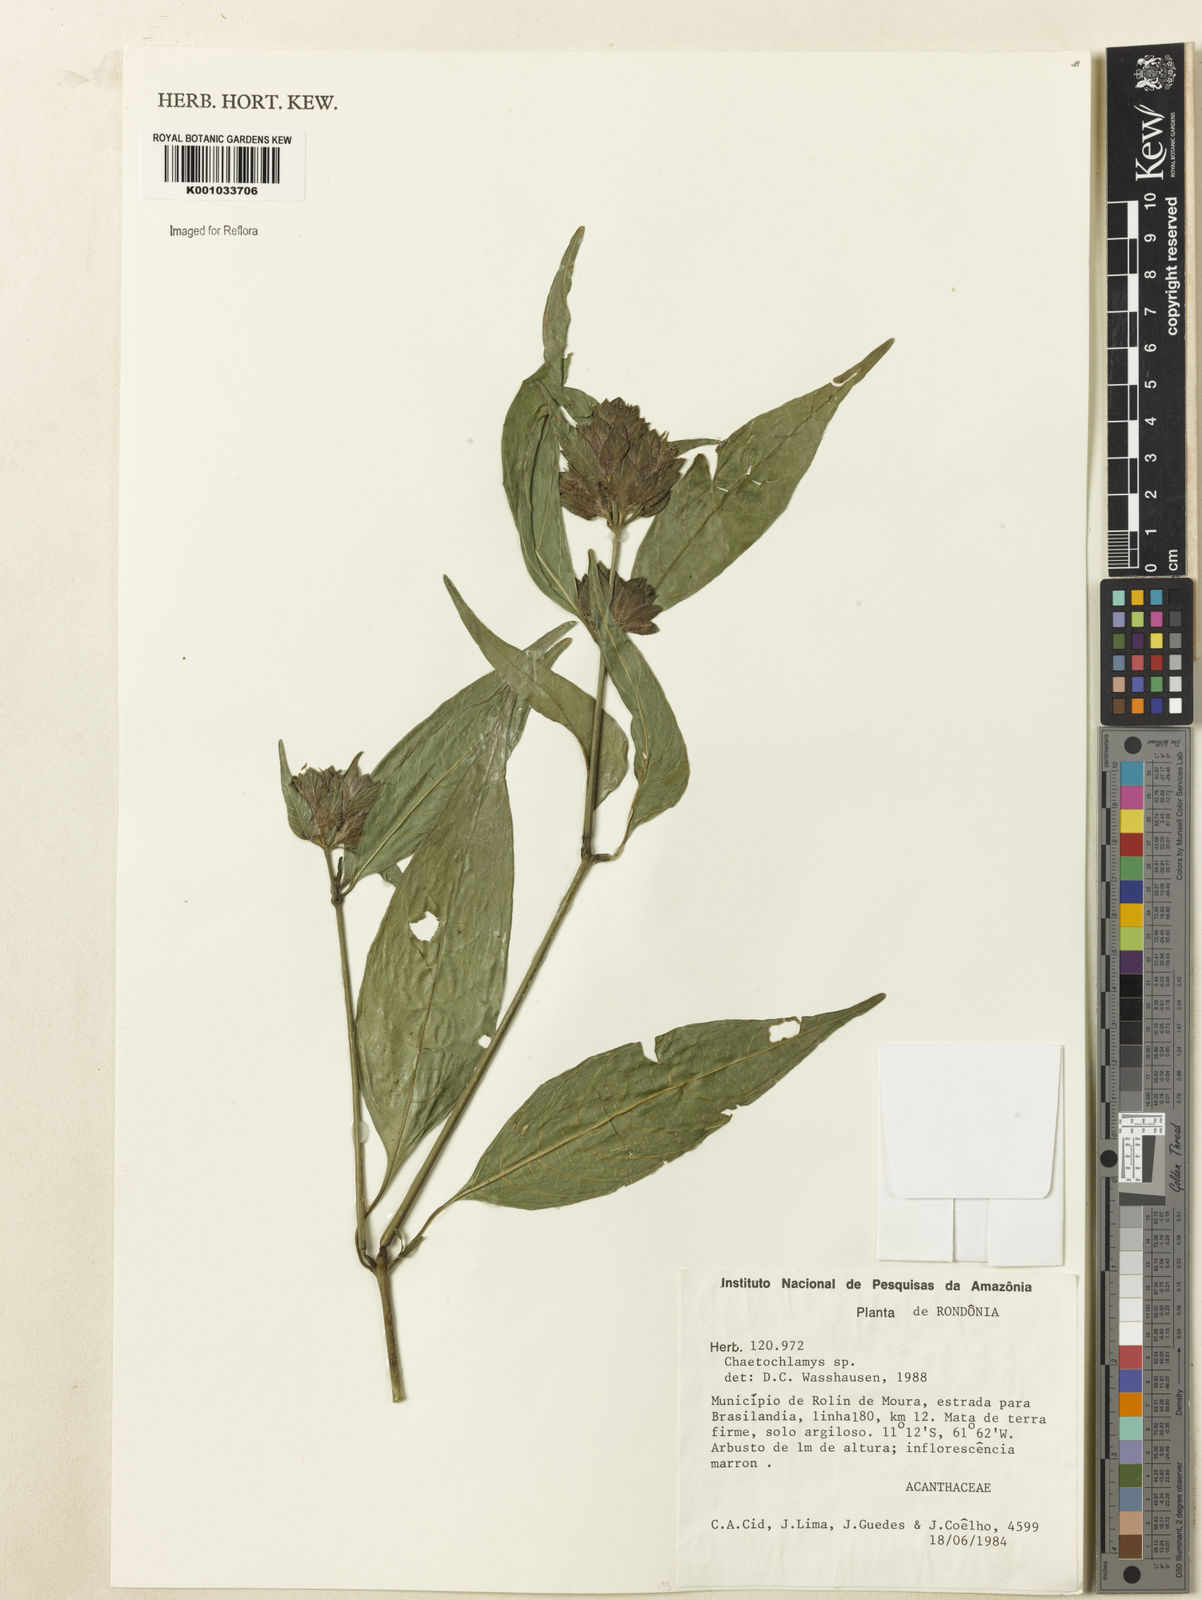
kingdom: Plantae
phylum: Tracheophyta
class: Magnoliopsida
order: Lamiales
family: Acanthaceae
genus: Justicia
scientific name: Justicia
